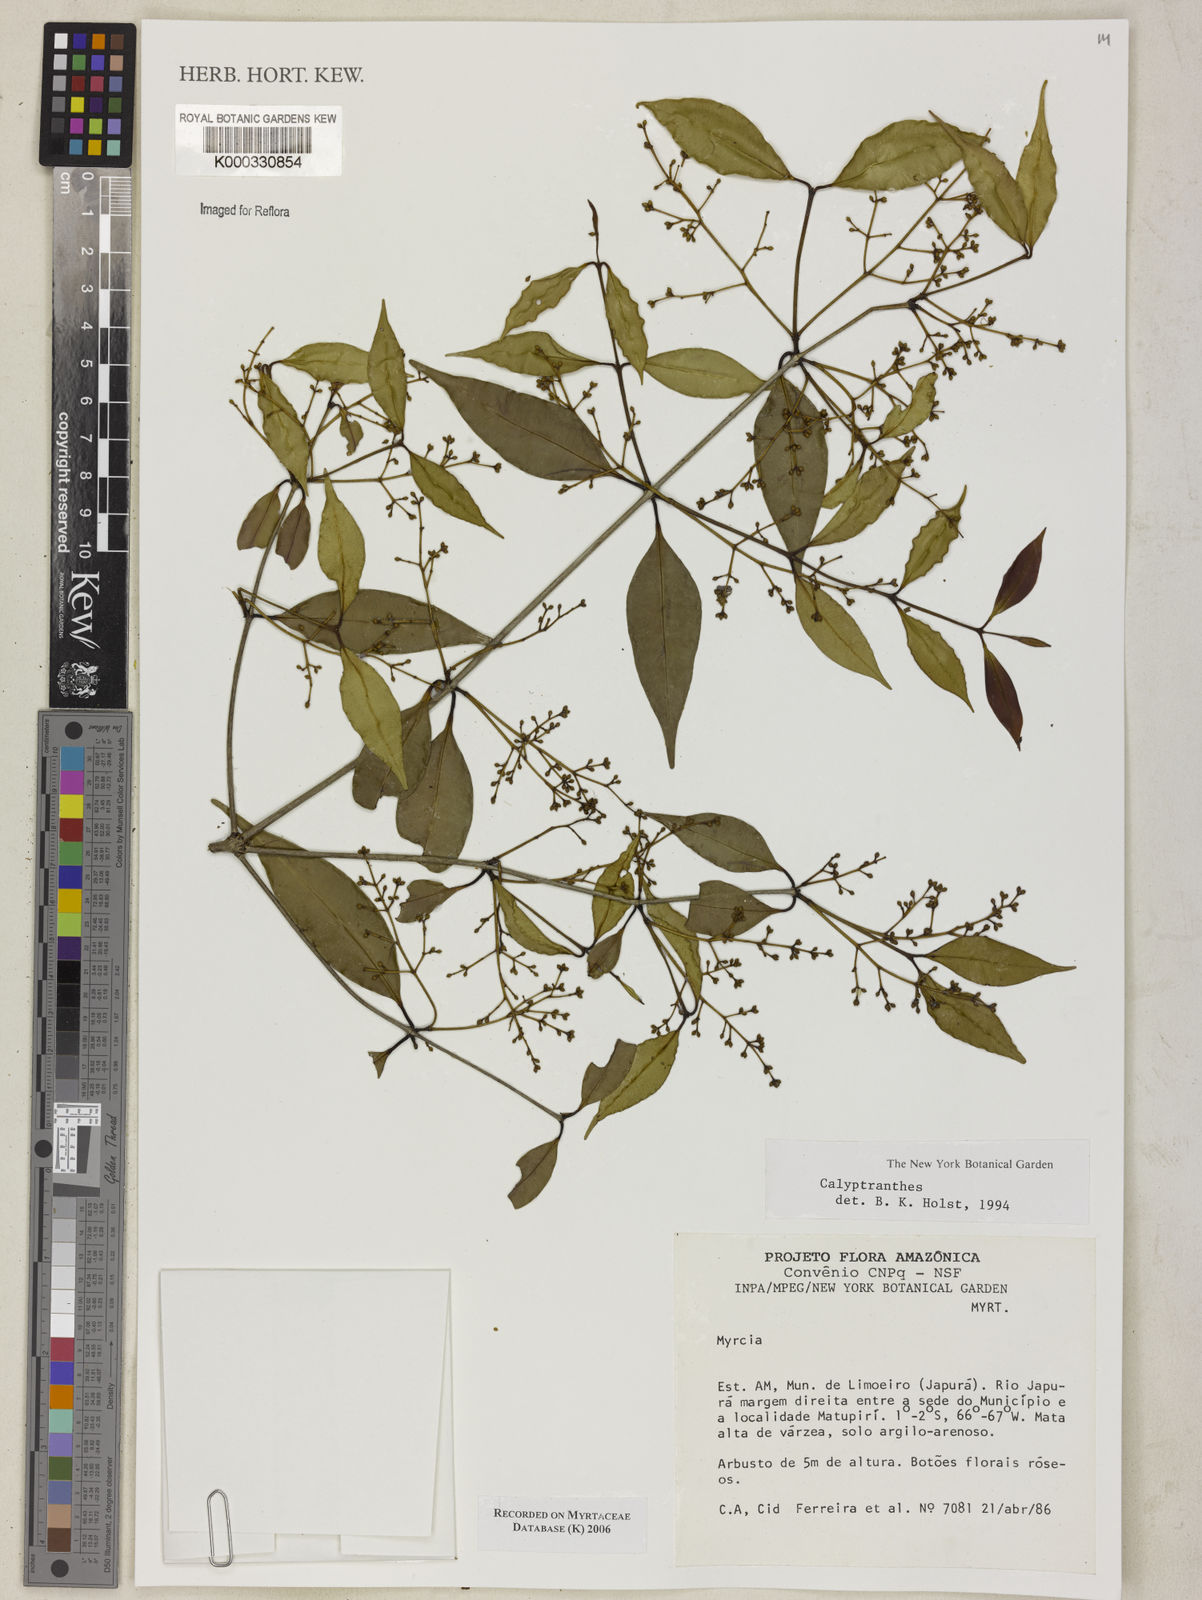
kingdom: Plantae
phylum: Tracheophyta
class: Magnoliopsida
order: Myrtales
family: Myrtaceae
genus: Calyptranthes
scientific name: Calyptranthes
